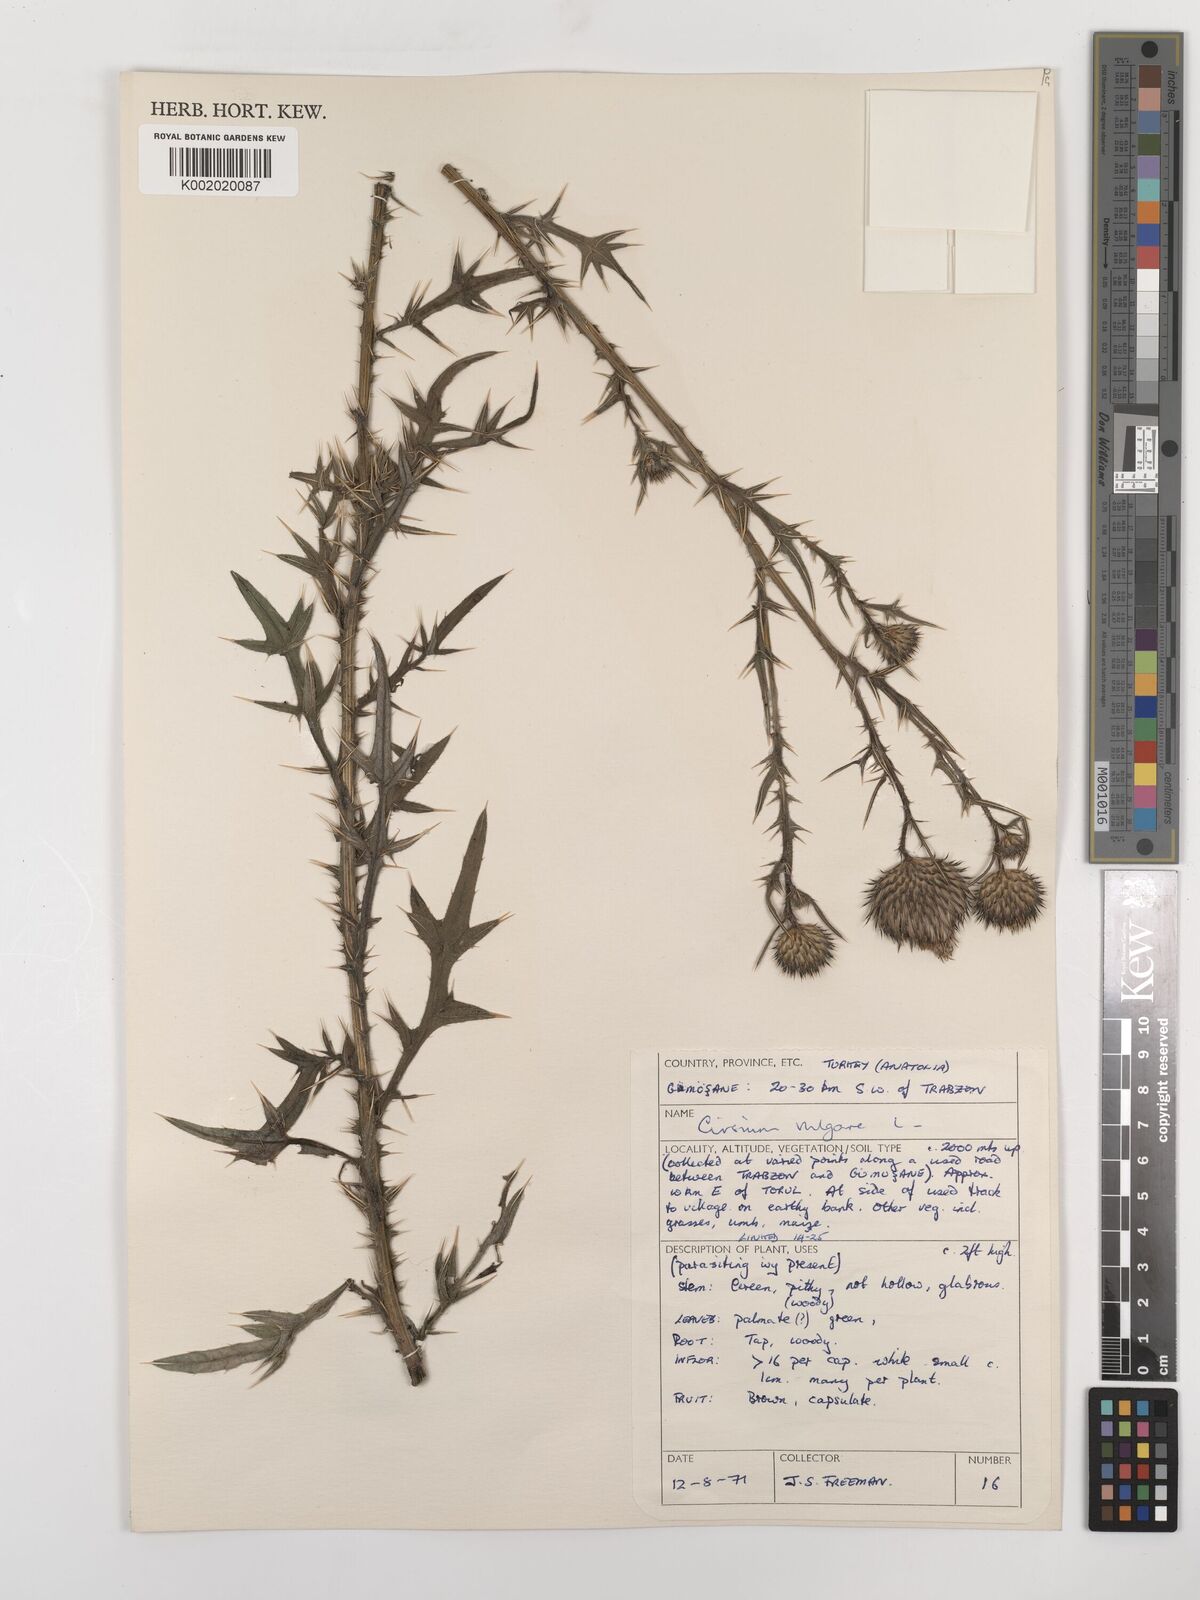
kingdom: Plantae
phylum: Tracheophyta
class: Magnoliopsida
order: Asterales
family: Asteraceae
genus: Cirsium
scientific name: Cirsium vulgare
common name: Bull thistle
